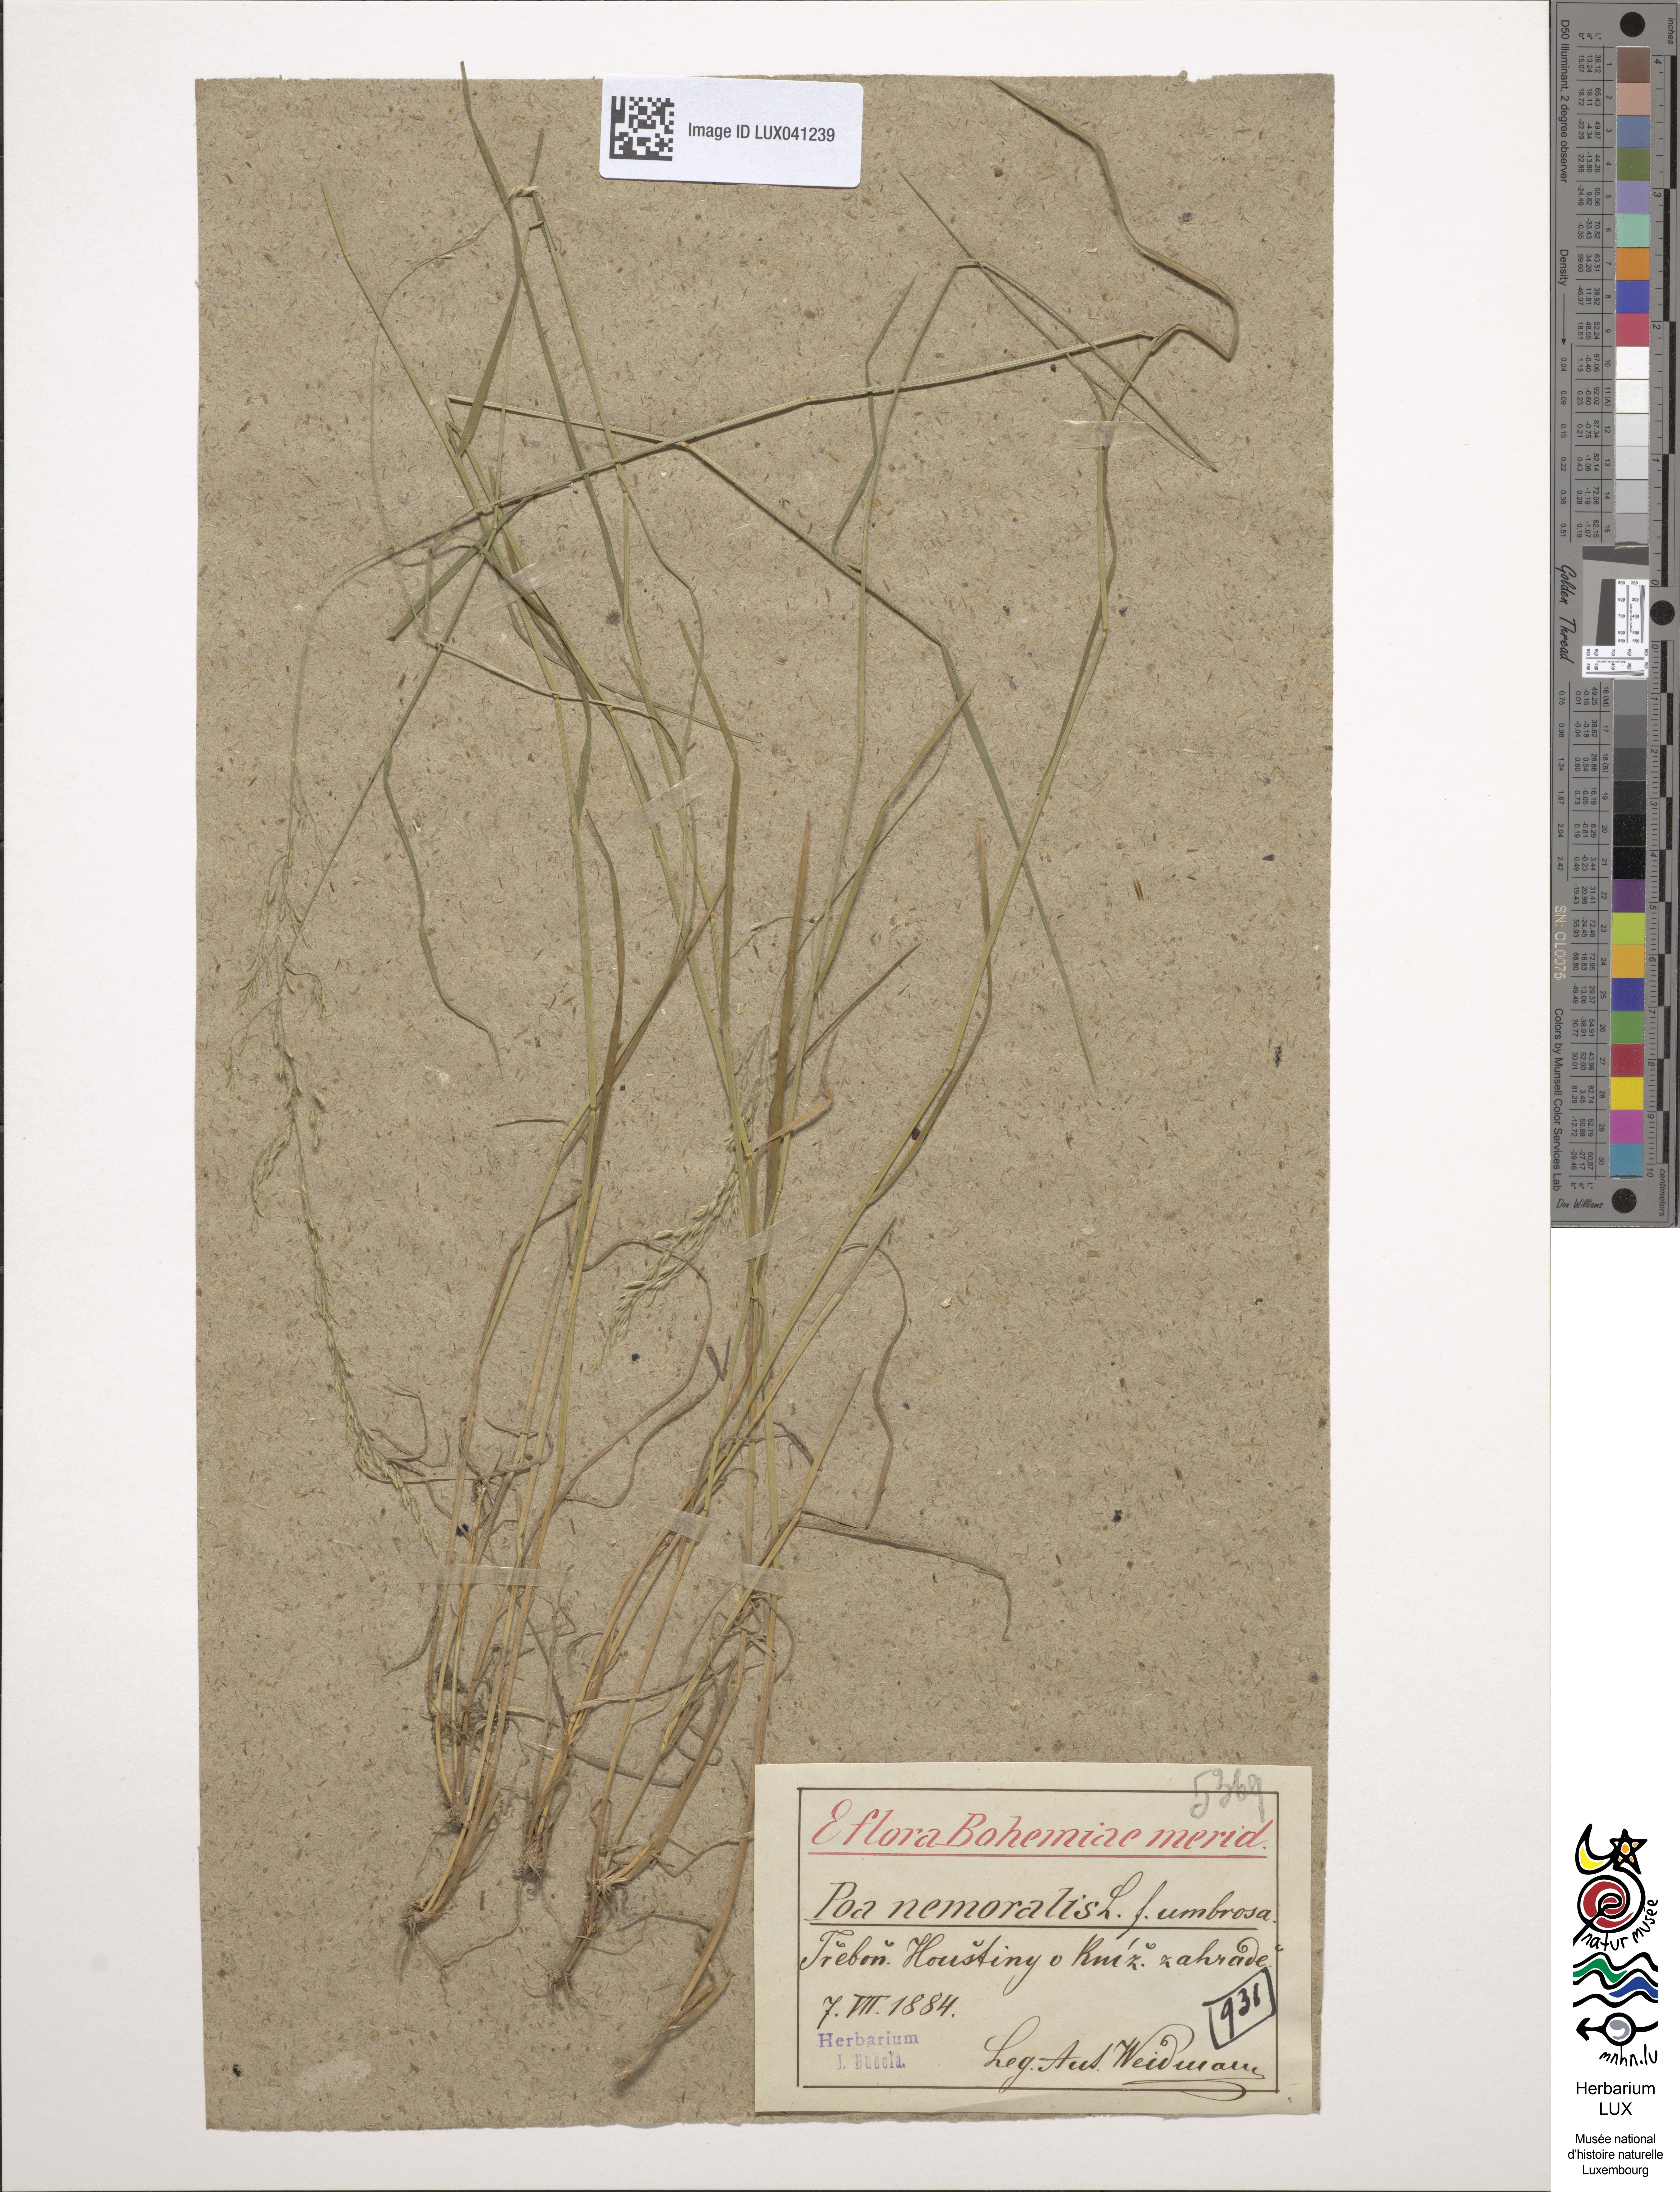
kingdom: Plantae
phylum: Tracheophyta
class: Liliopsida
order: Poales
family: Poaceae
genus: Poa
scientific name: Poa nemoralis
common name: Wood bluegrass
